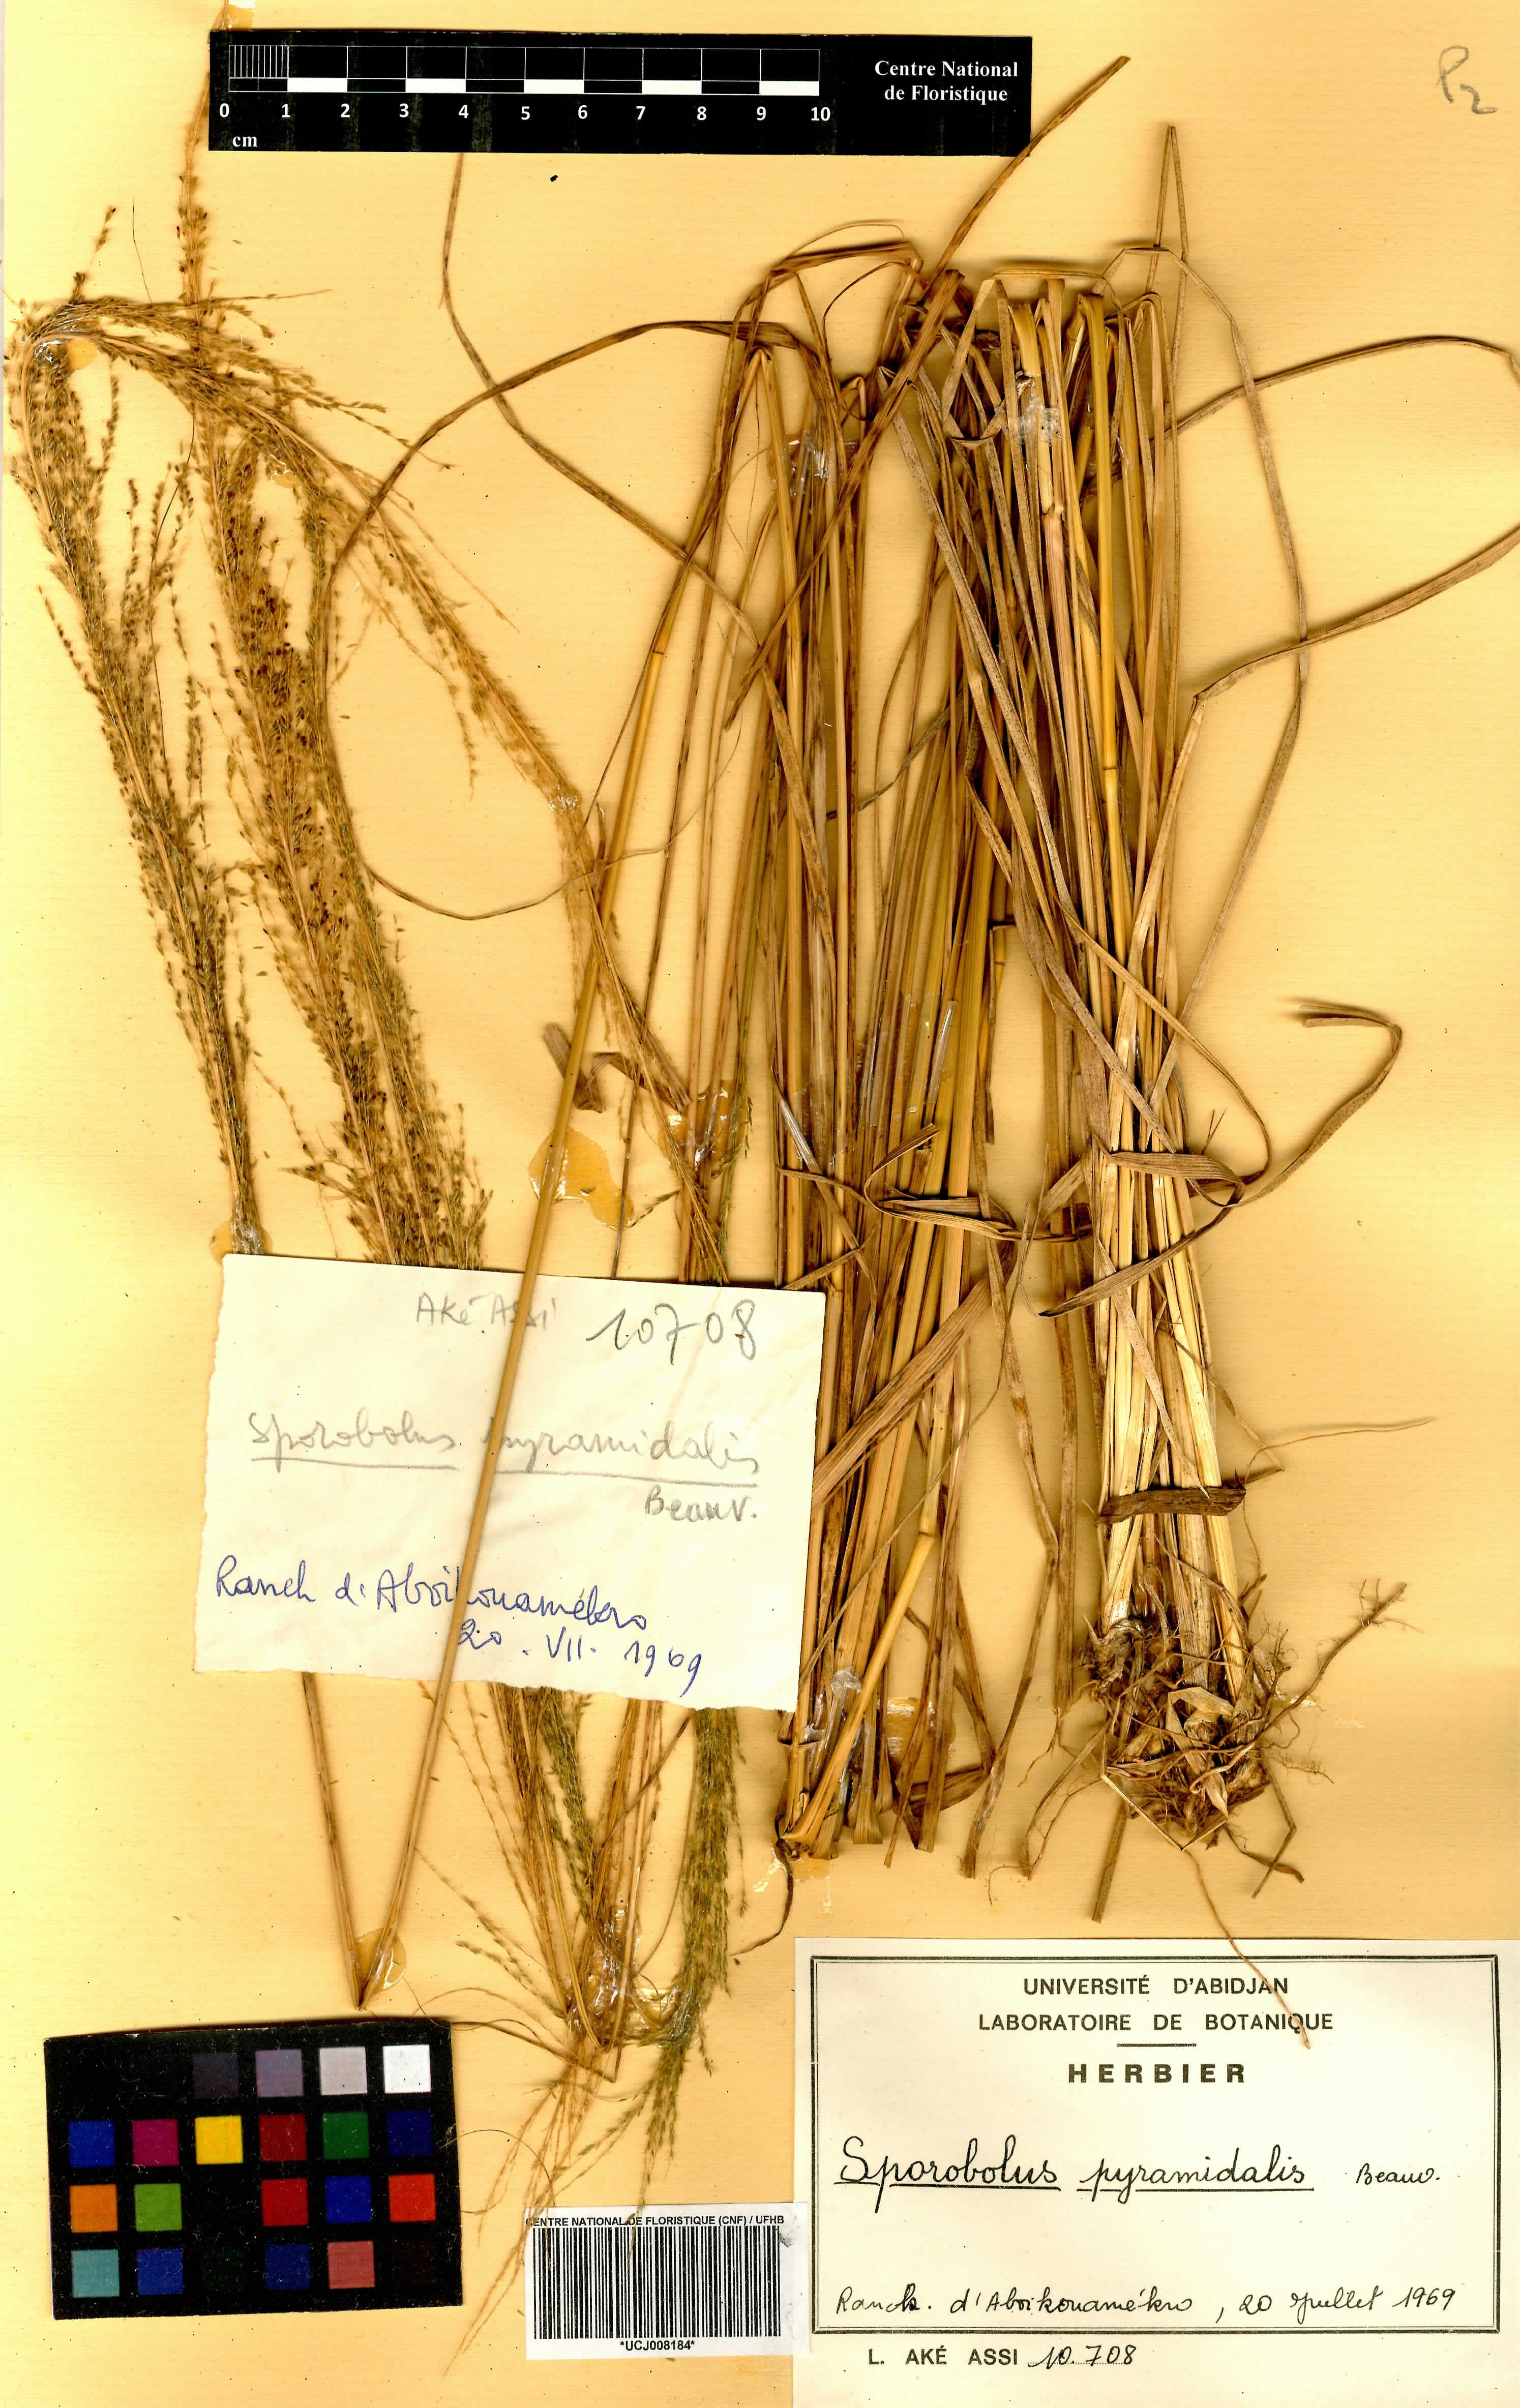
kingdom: Plantae
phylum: Tracheophyta
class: Liliopsida
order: Poales
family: Poaceae
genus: Sporobolus
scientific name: Sporobolus pyramidalis
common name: West indian dropseed
